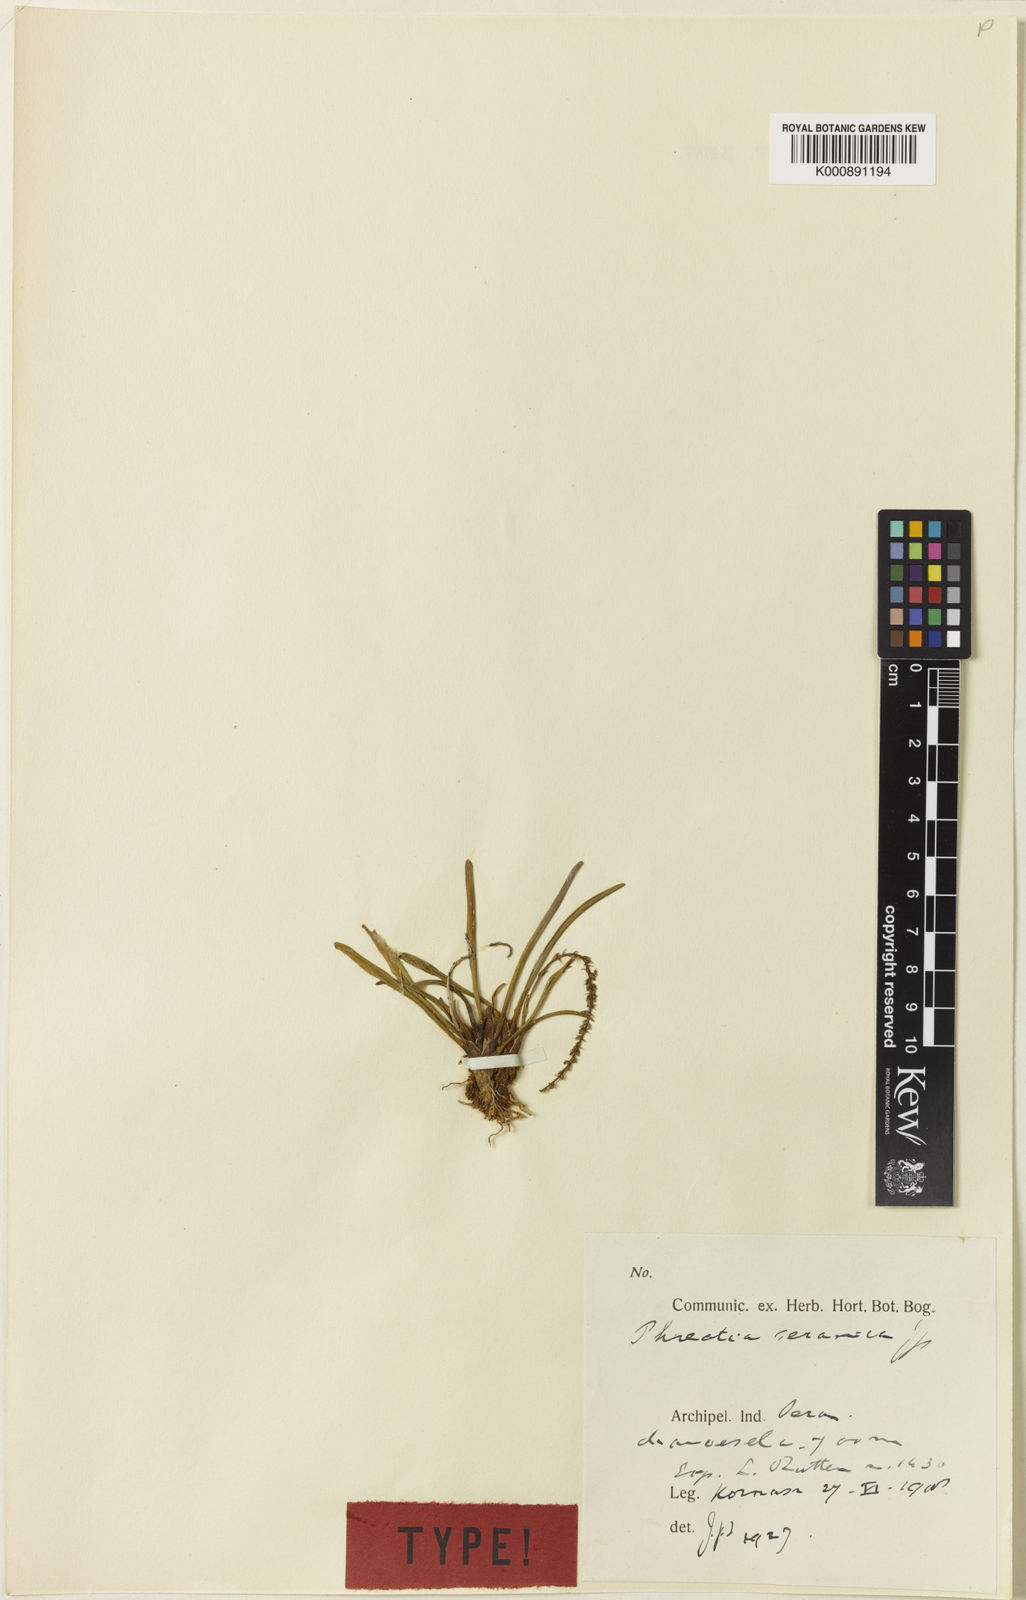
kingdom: Plantae
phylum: Tracheophyta
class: Liliopsida
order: Asparagales
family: Orchidaceae
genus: Phreatia
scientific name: Phreatia seranica
